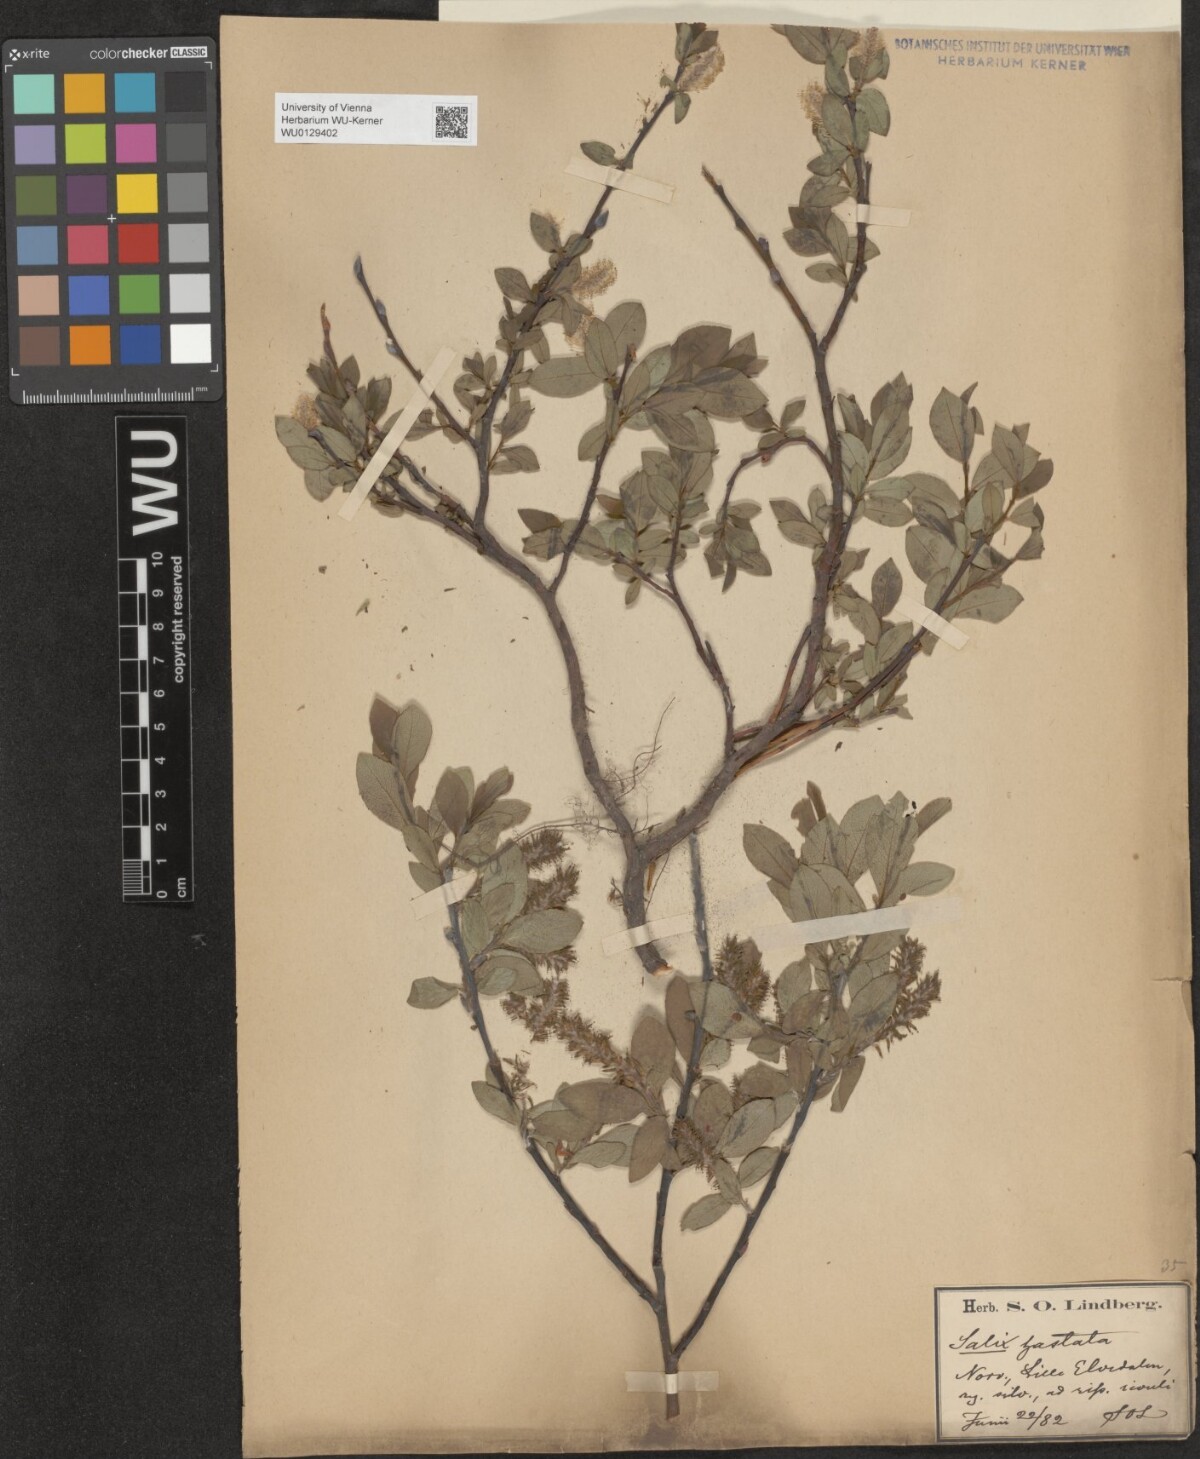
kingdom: Plantae
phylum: Tracheophyta
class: Magnoliopsida
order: Malpighiales
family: Salicaceae
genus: Salix
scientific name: Salix hastata
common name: Halberd willow
